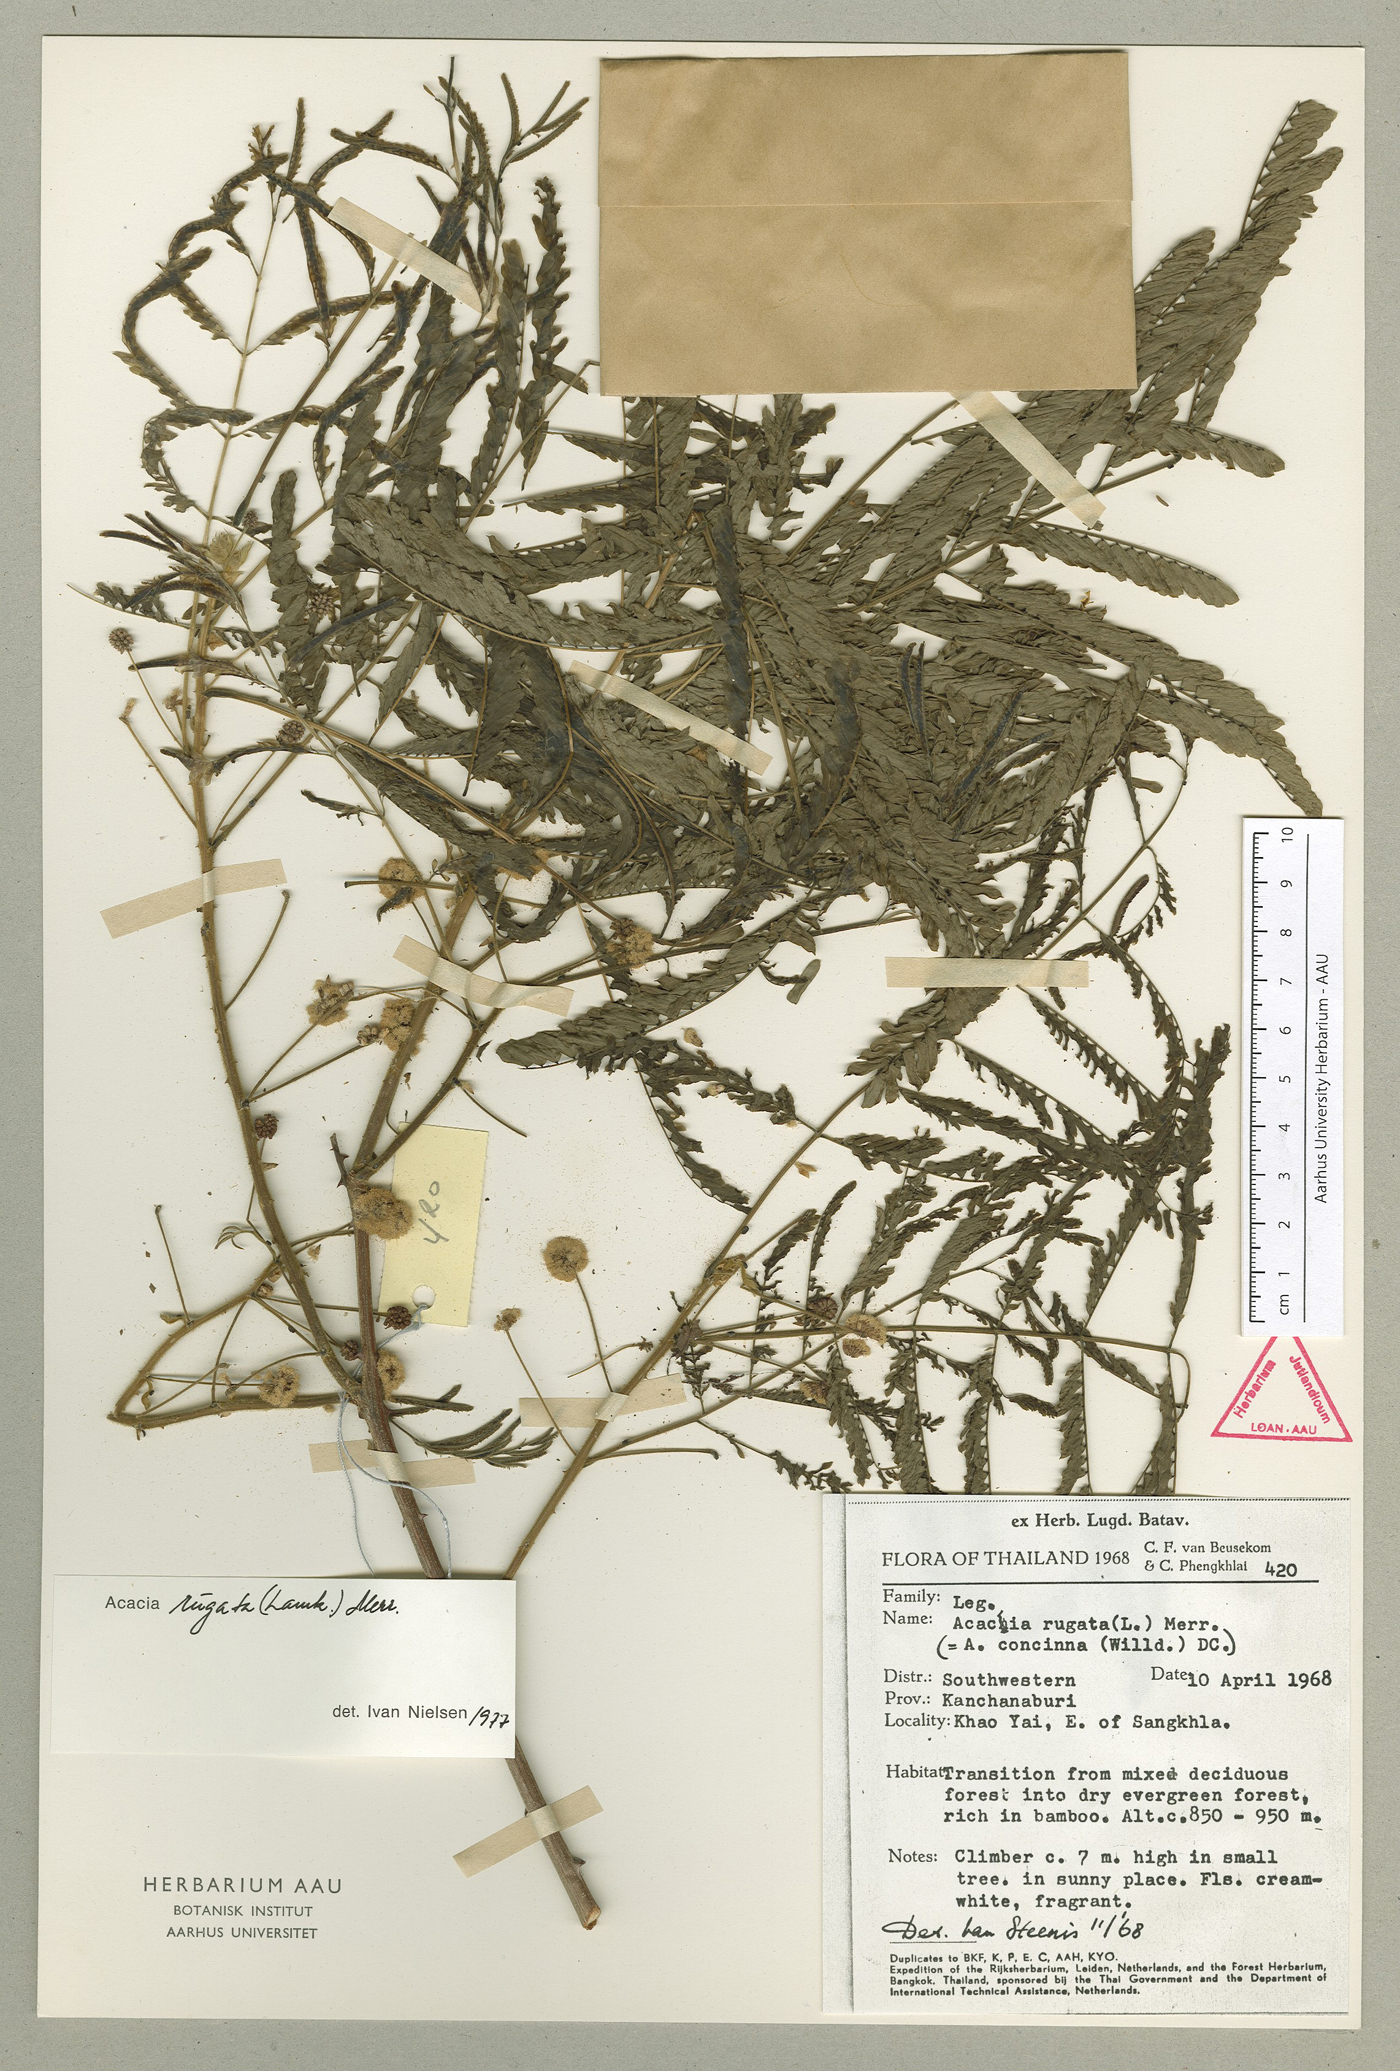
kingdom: Plantae
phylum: Tracheophyta
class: Magnoliopsida
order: Fabales
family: Fabaceae
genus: Senegalia
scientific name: Senegalia rugata
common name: Soap-pod
